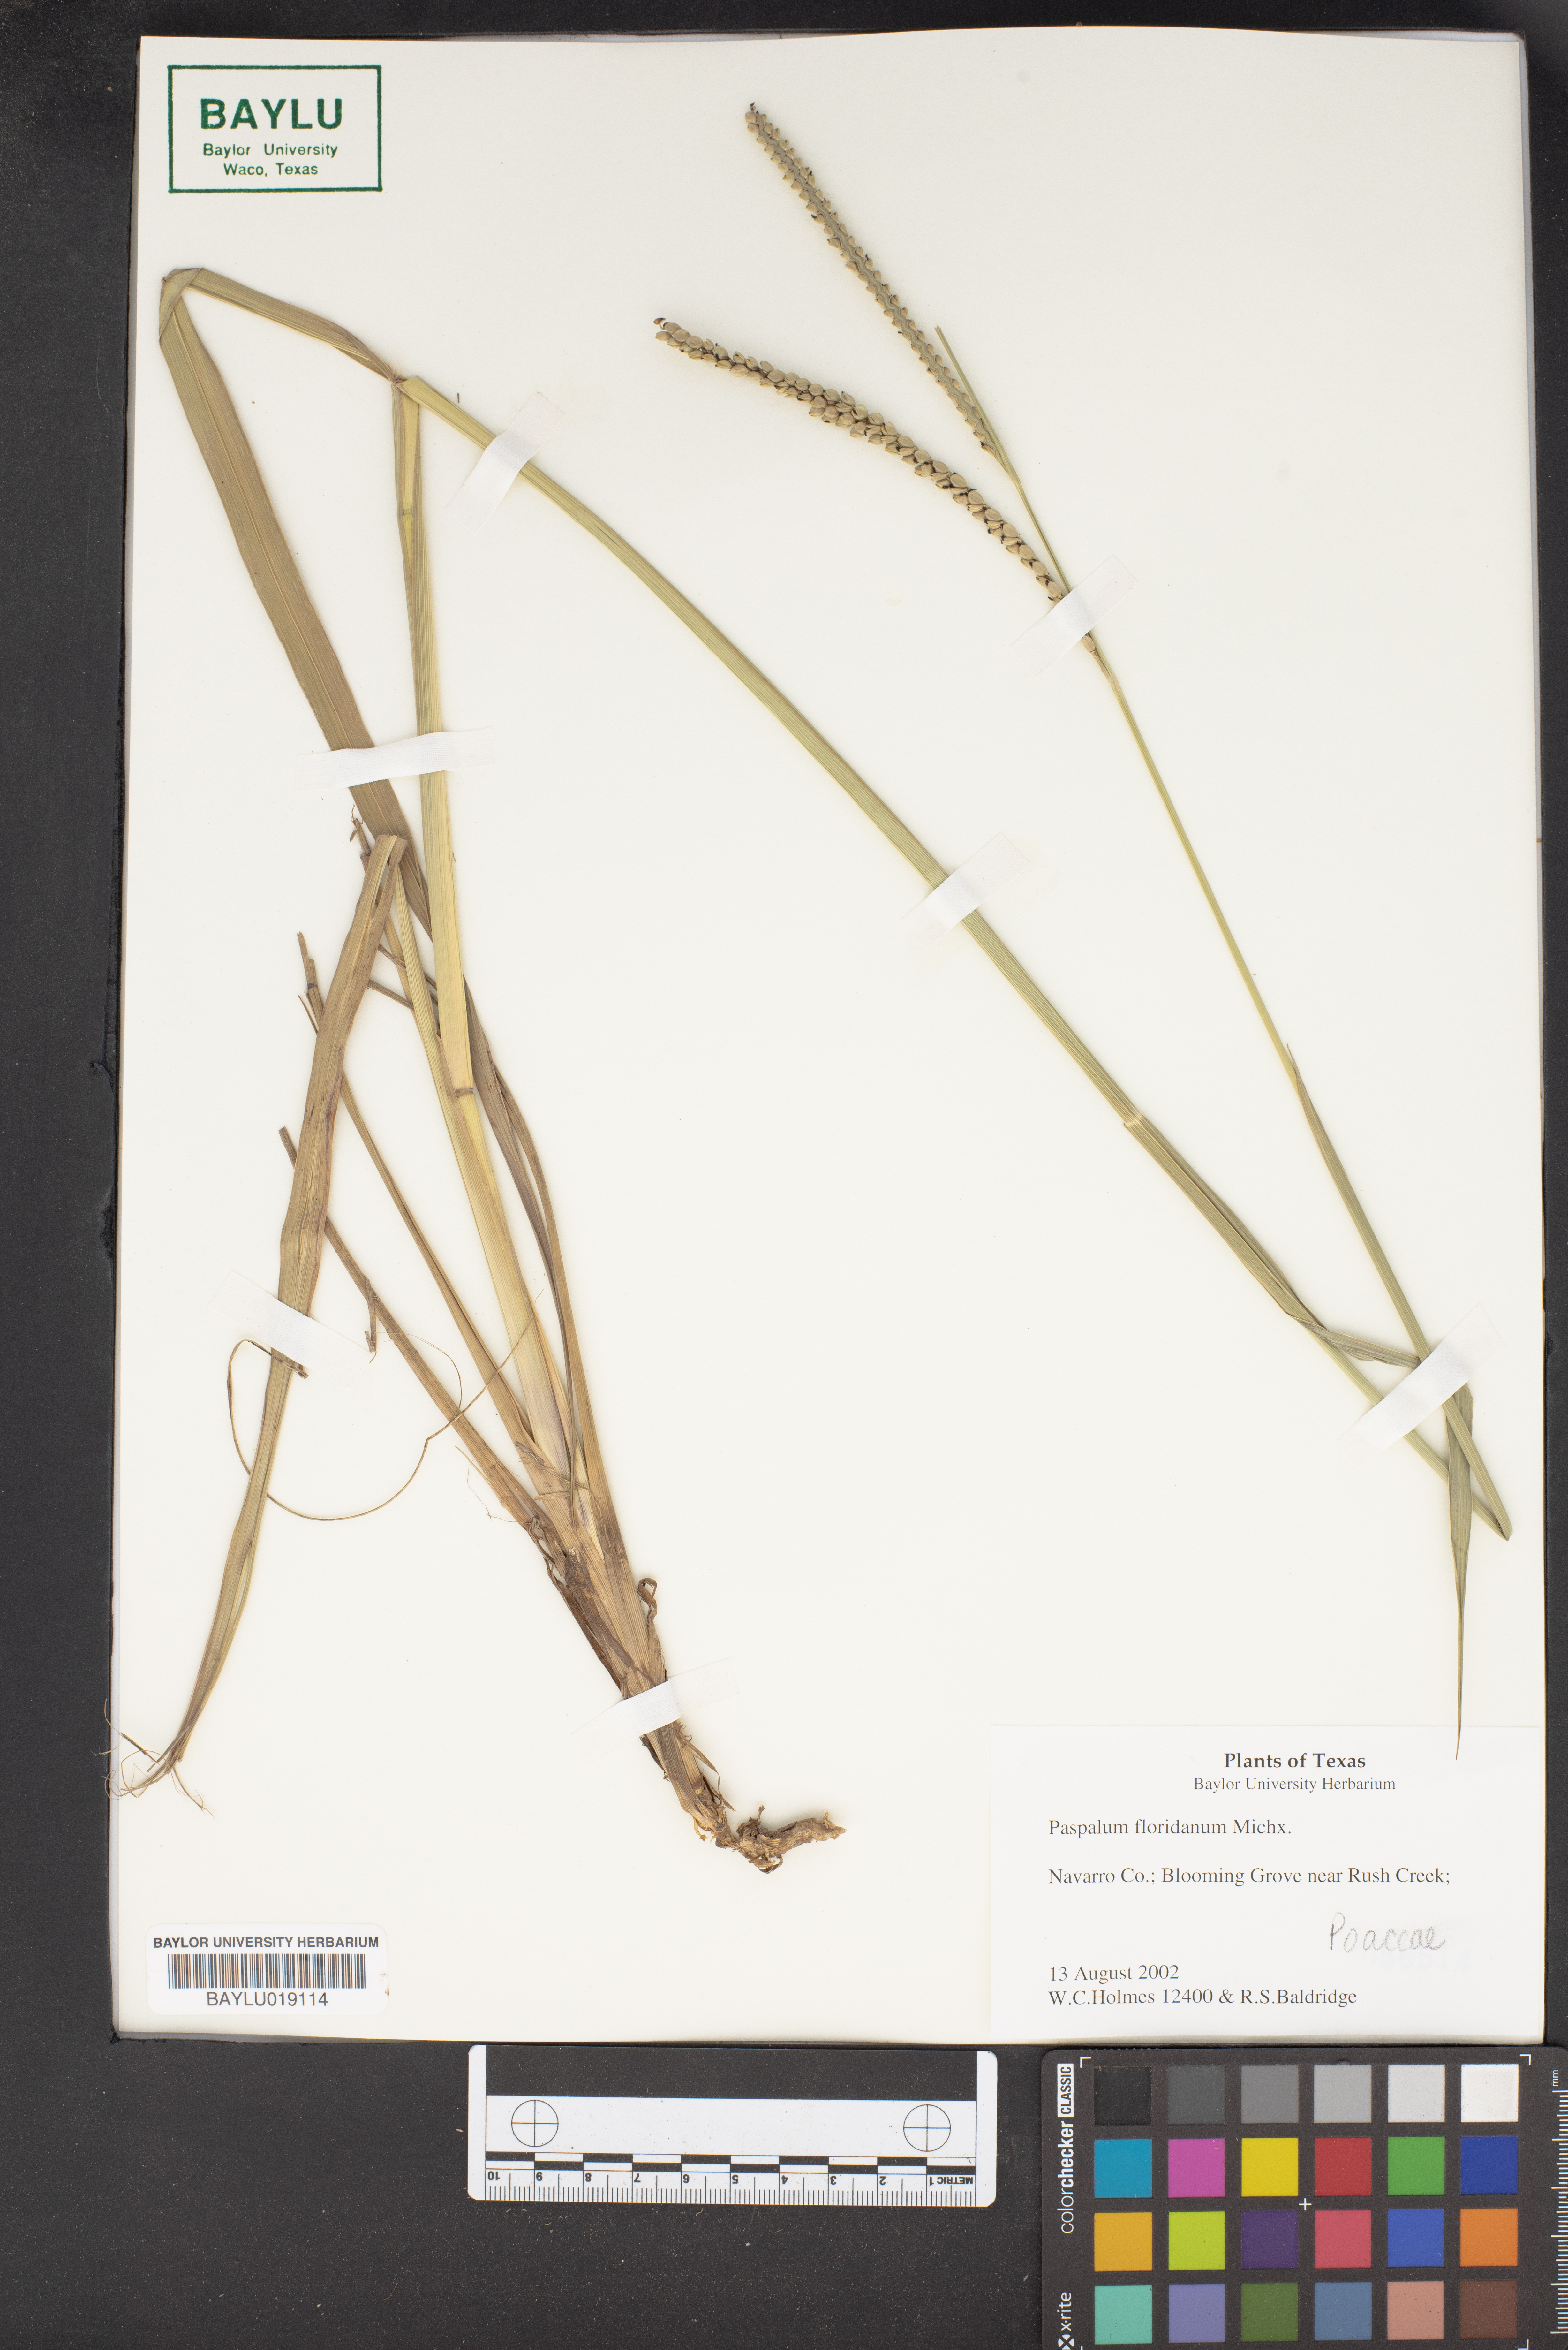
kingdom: Plantae
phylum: Tracheophyta
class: Liliopsida
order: Poales
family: Poaceae
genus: Paspalum
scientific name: Paspalum floridanum
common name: Florida paspalum
